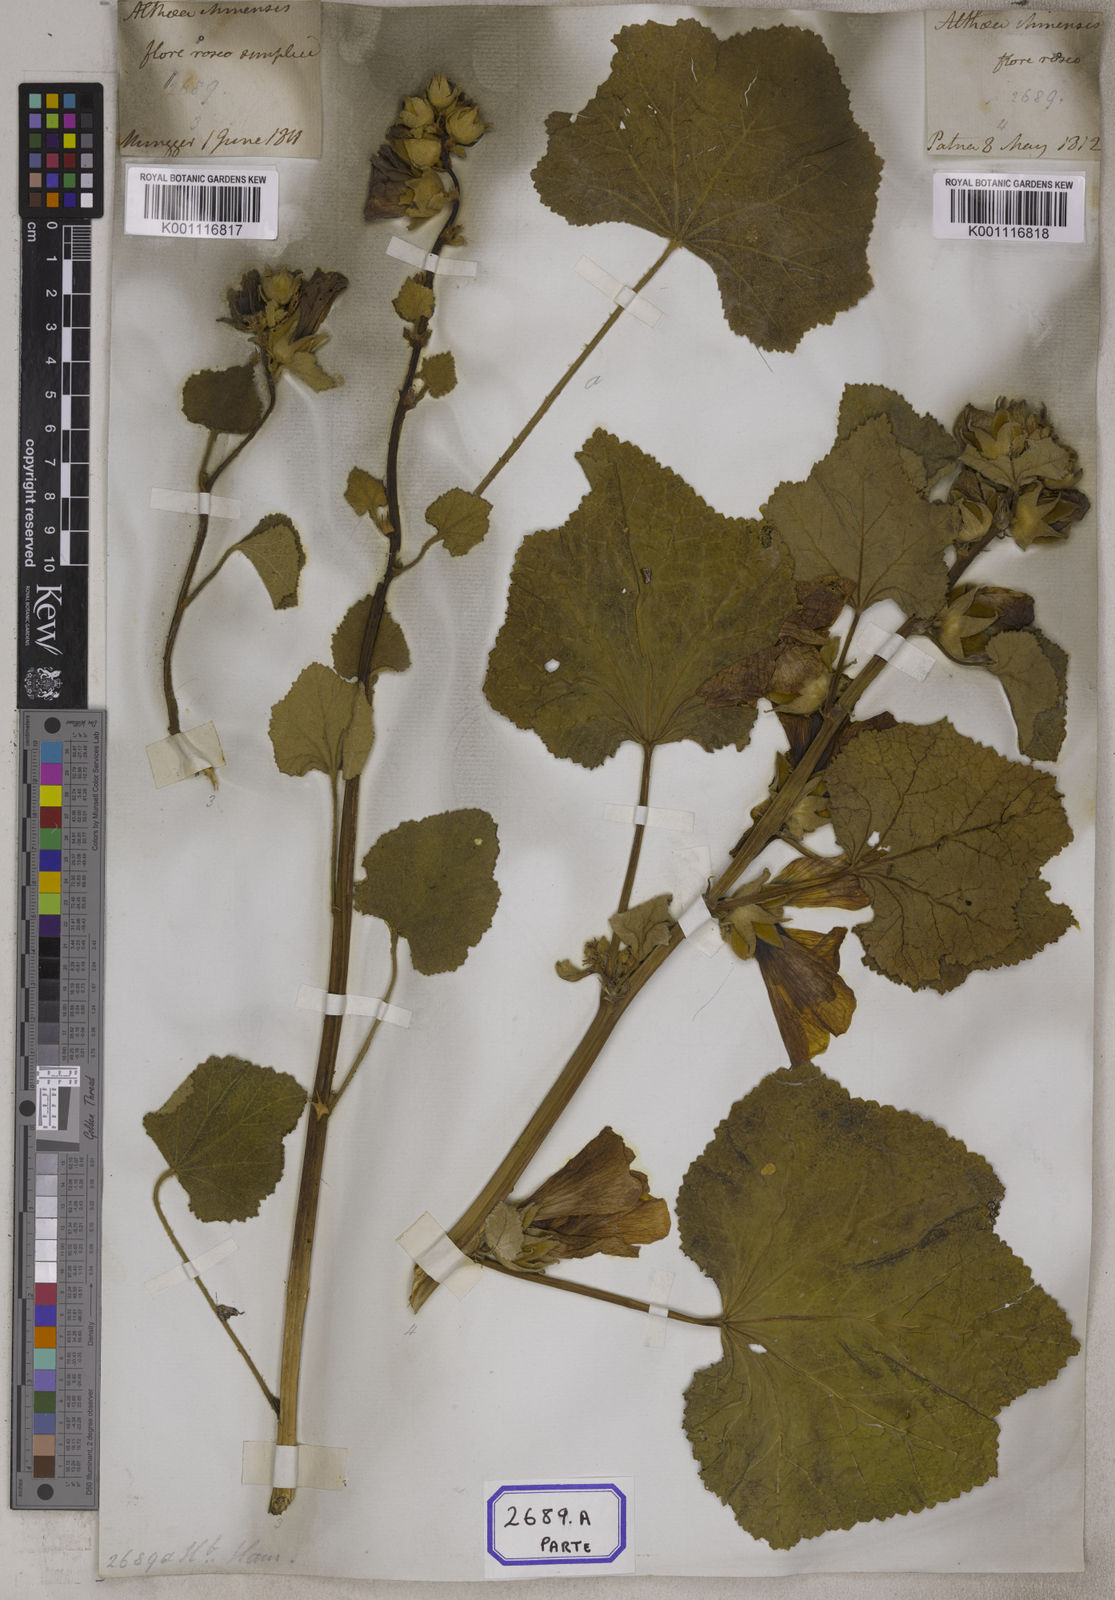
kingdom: Plantae
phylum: Tracheophyta
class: Magnoliopsida
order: Malvales
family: Malvaceae
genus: Alcea
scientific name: Alcea rosea
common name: Hollyhock
